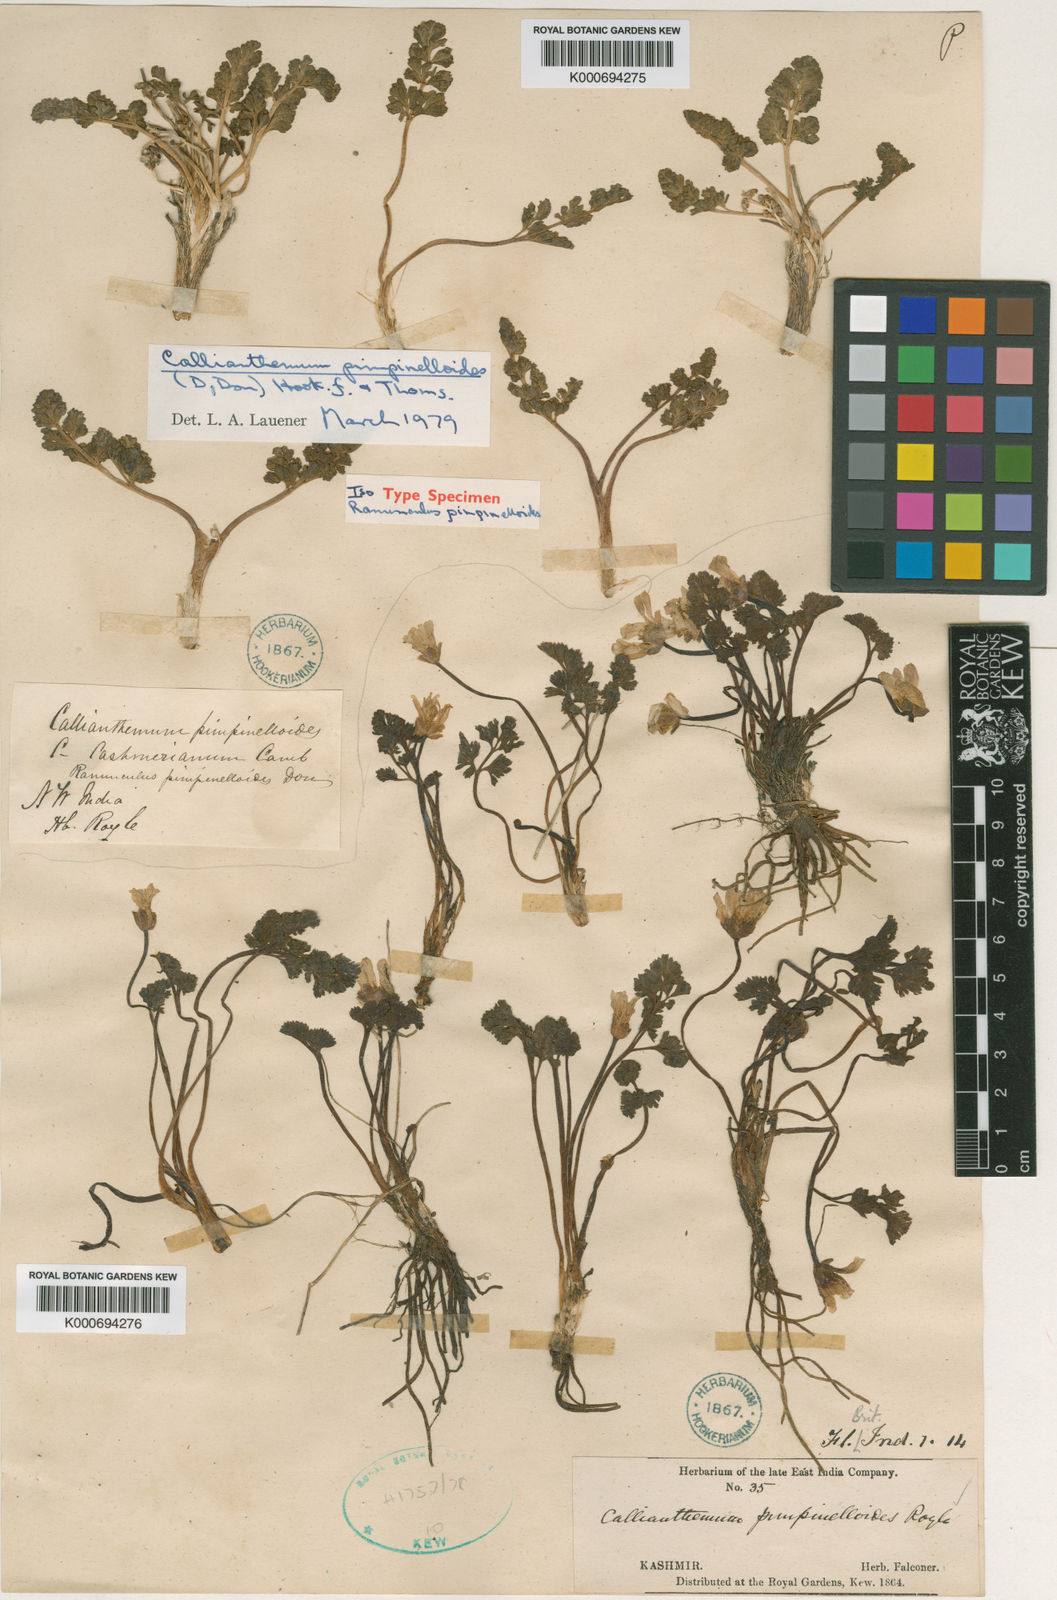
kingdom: Plantae
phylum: Tracheophyta
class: Magnoliopsida
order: Ranunculales
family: Ranunculaceae
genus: Callianthemum
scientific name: Callianthemum pimpinelloides
